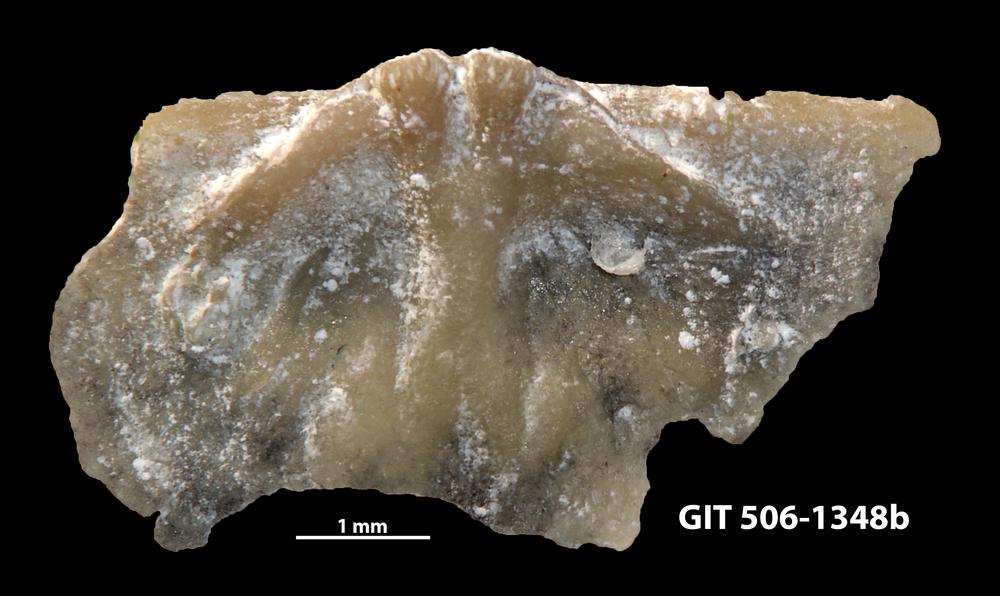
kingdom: Animalia
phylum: Brachiopoda
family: Strophomenidae
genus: Katastrophomena
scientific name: Katastrophomena woodlandensis
